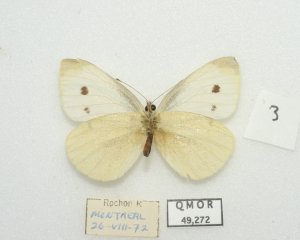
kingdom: Animalia
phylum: Arthropoda
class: Insecta
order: Lepidoptera
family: Pieridae
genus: Pieris
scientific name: Pieris rapae
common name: Cabbage White
